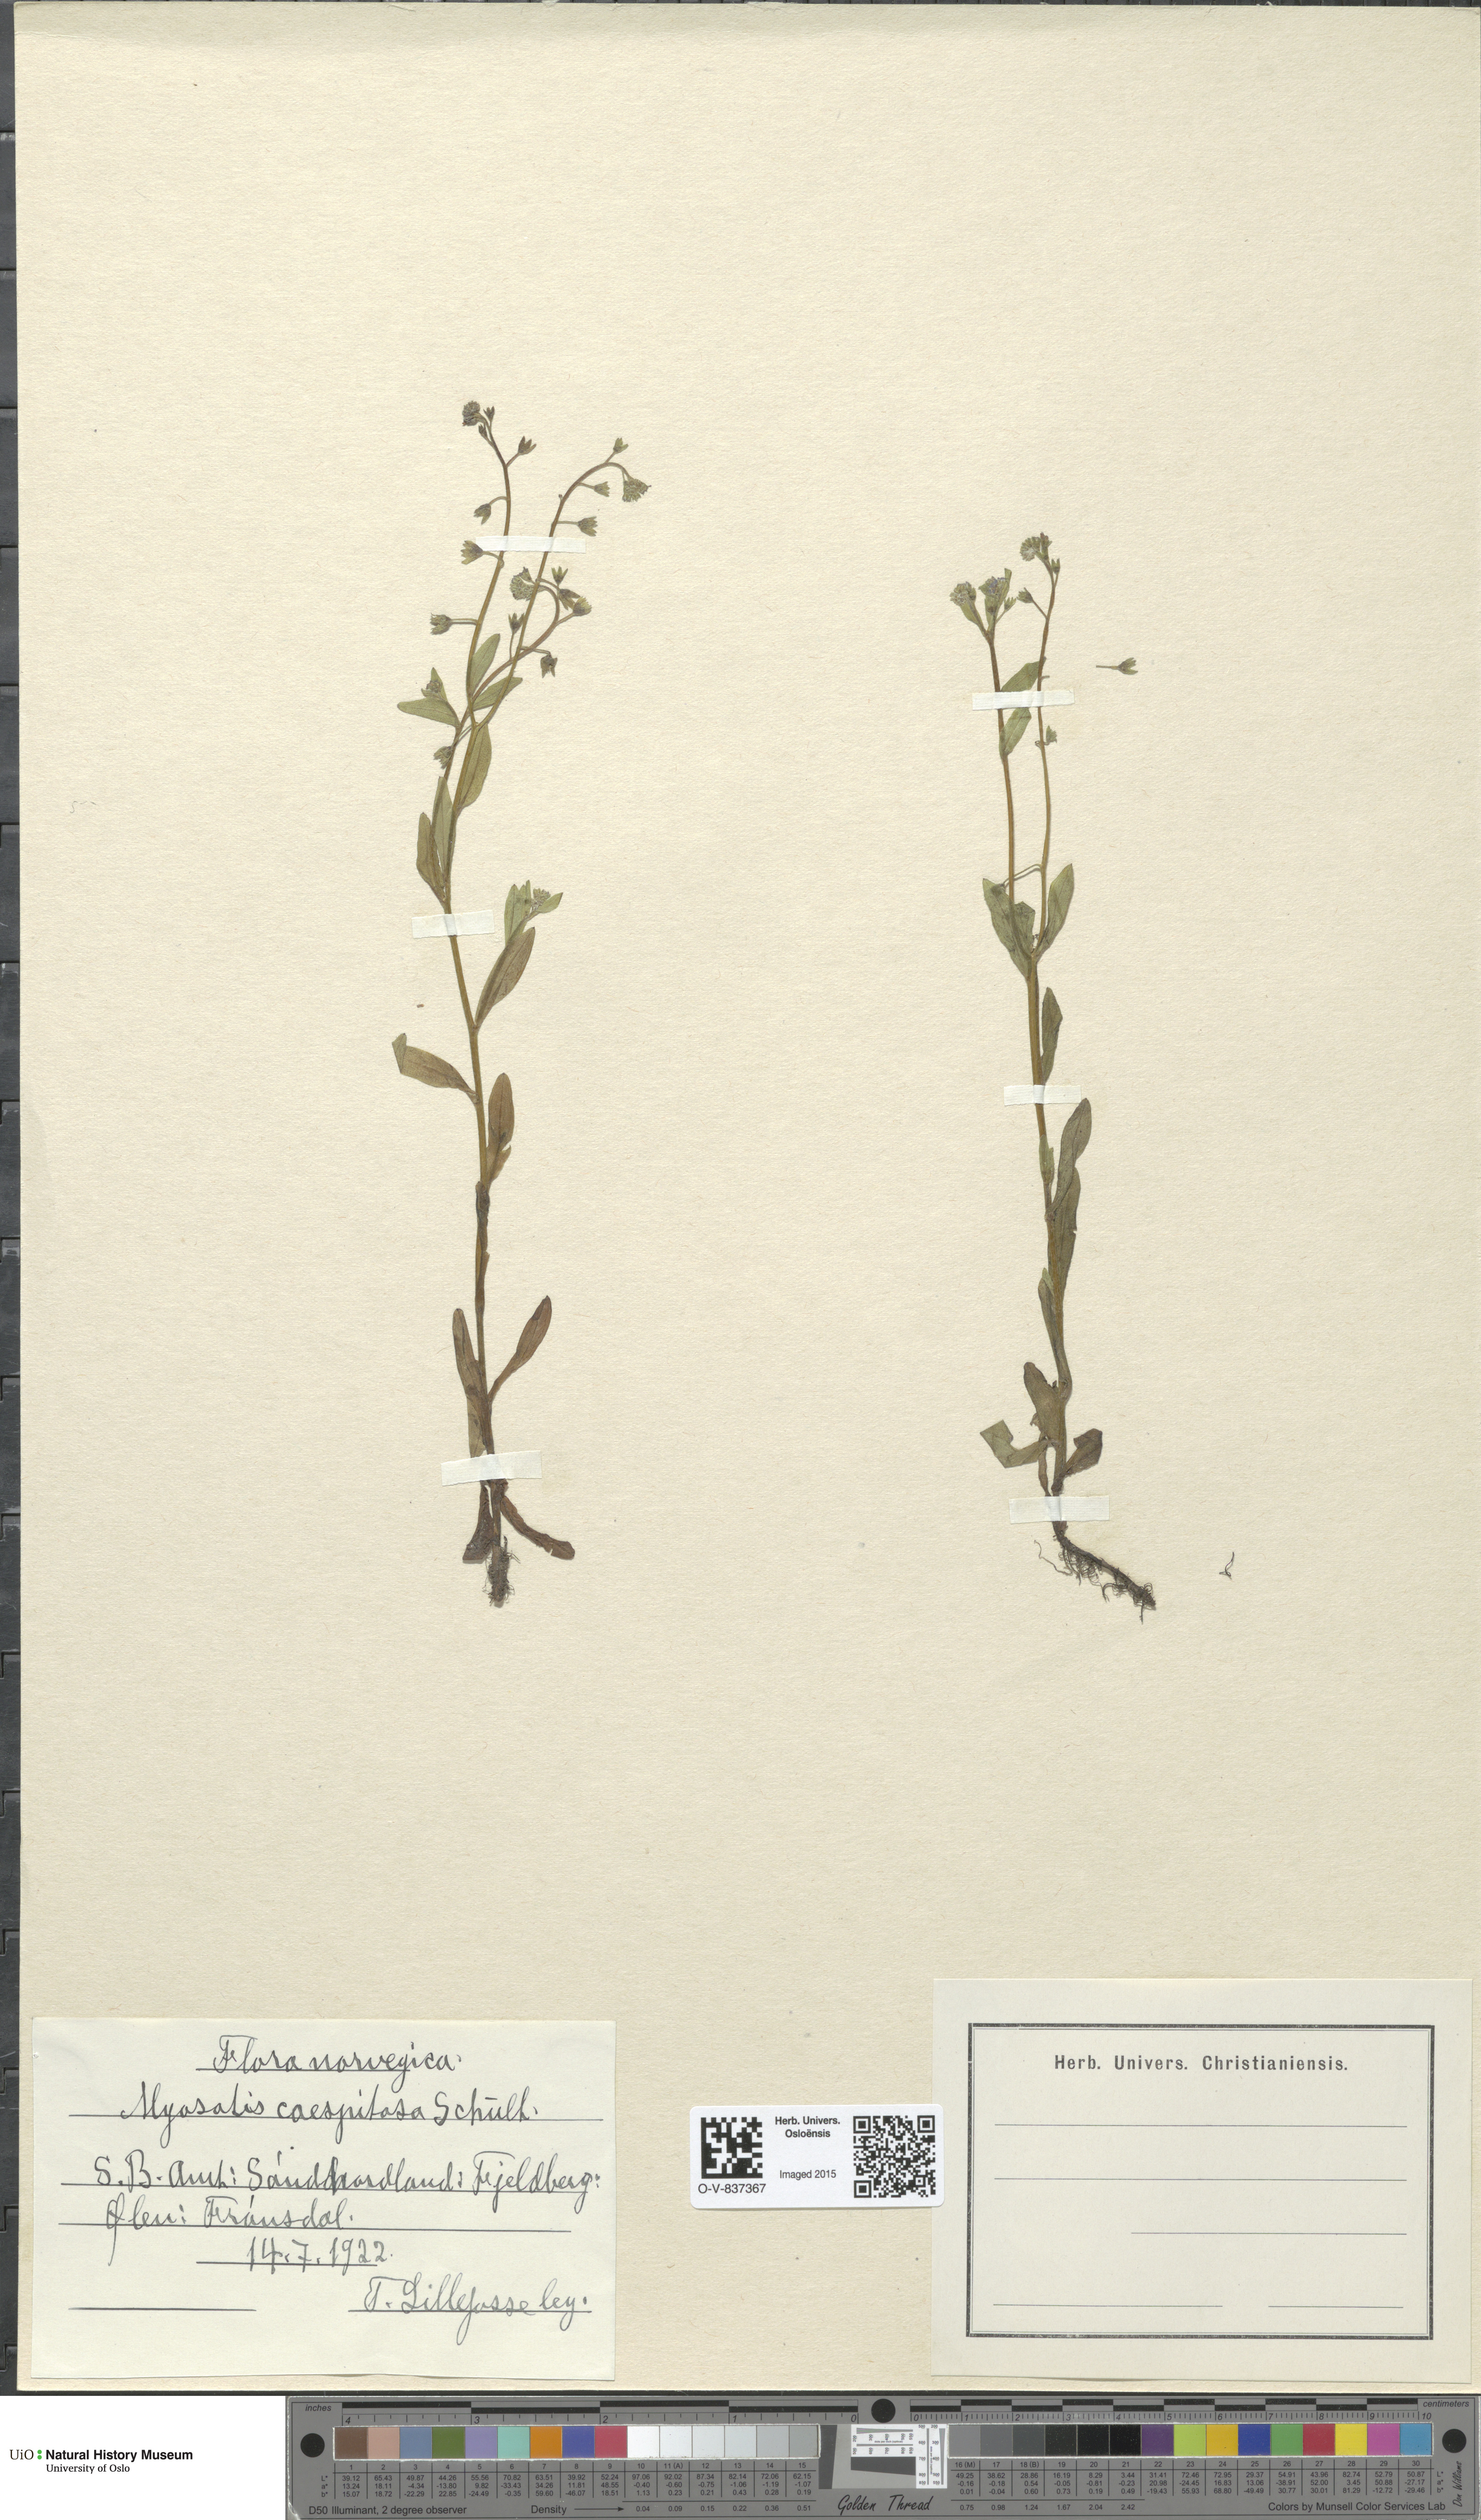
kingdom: Plantae
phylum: Tracheophyta
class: Magnoliopsida
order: Boraginales
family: Boraginaceae
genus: Myosotis
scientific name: Myosotis laxa
